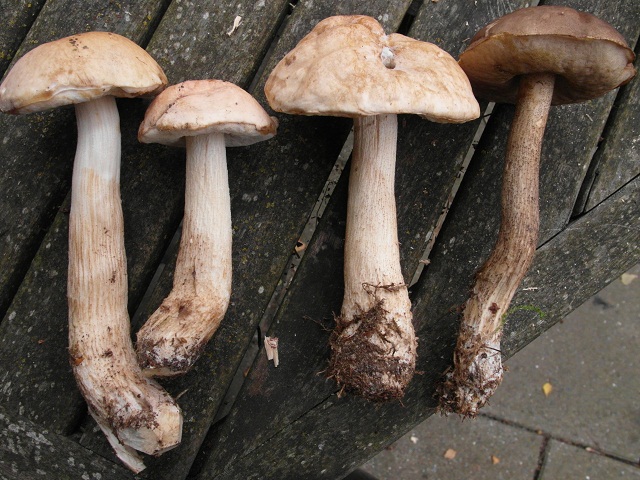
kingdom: Fungi
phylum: Basidiomycota
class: Agaricomycetes
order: Boletales
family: Boletaceae
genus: Leccinum
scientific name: Leccinum scabrum
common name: hvid skælrørhat
